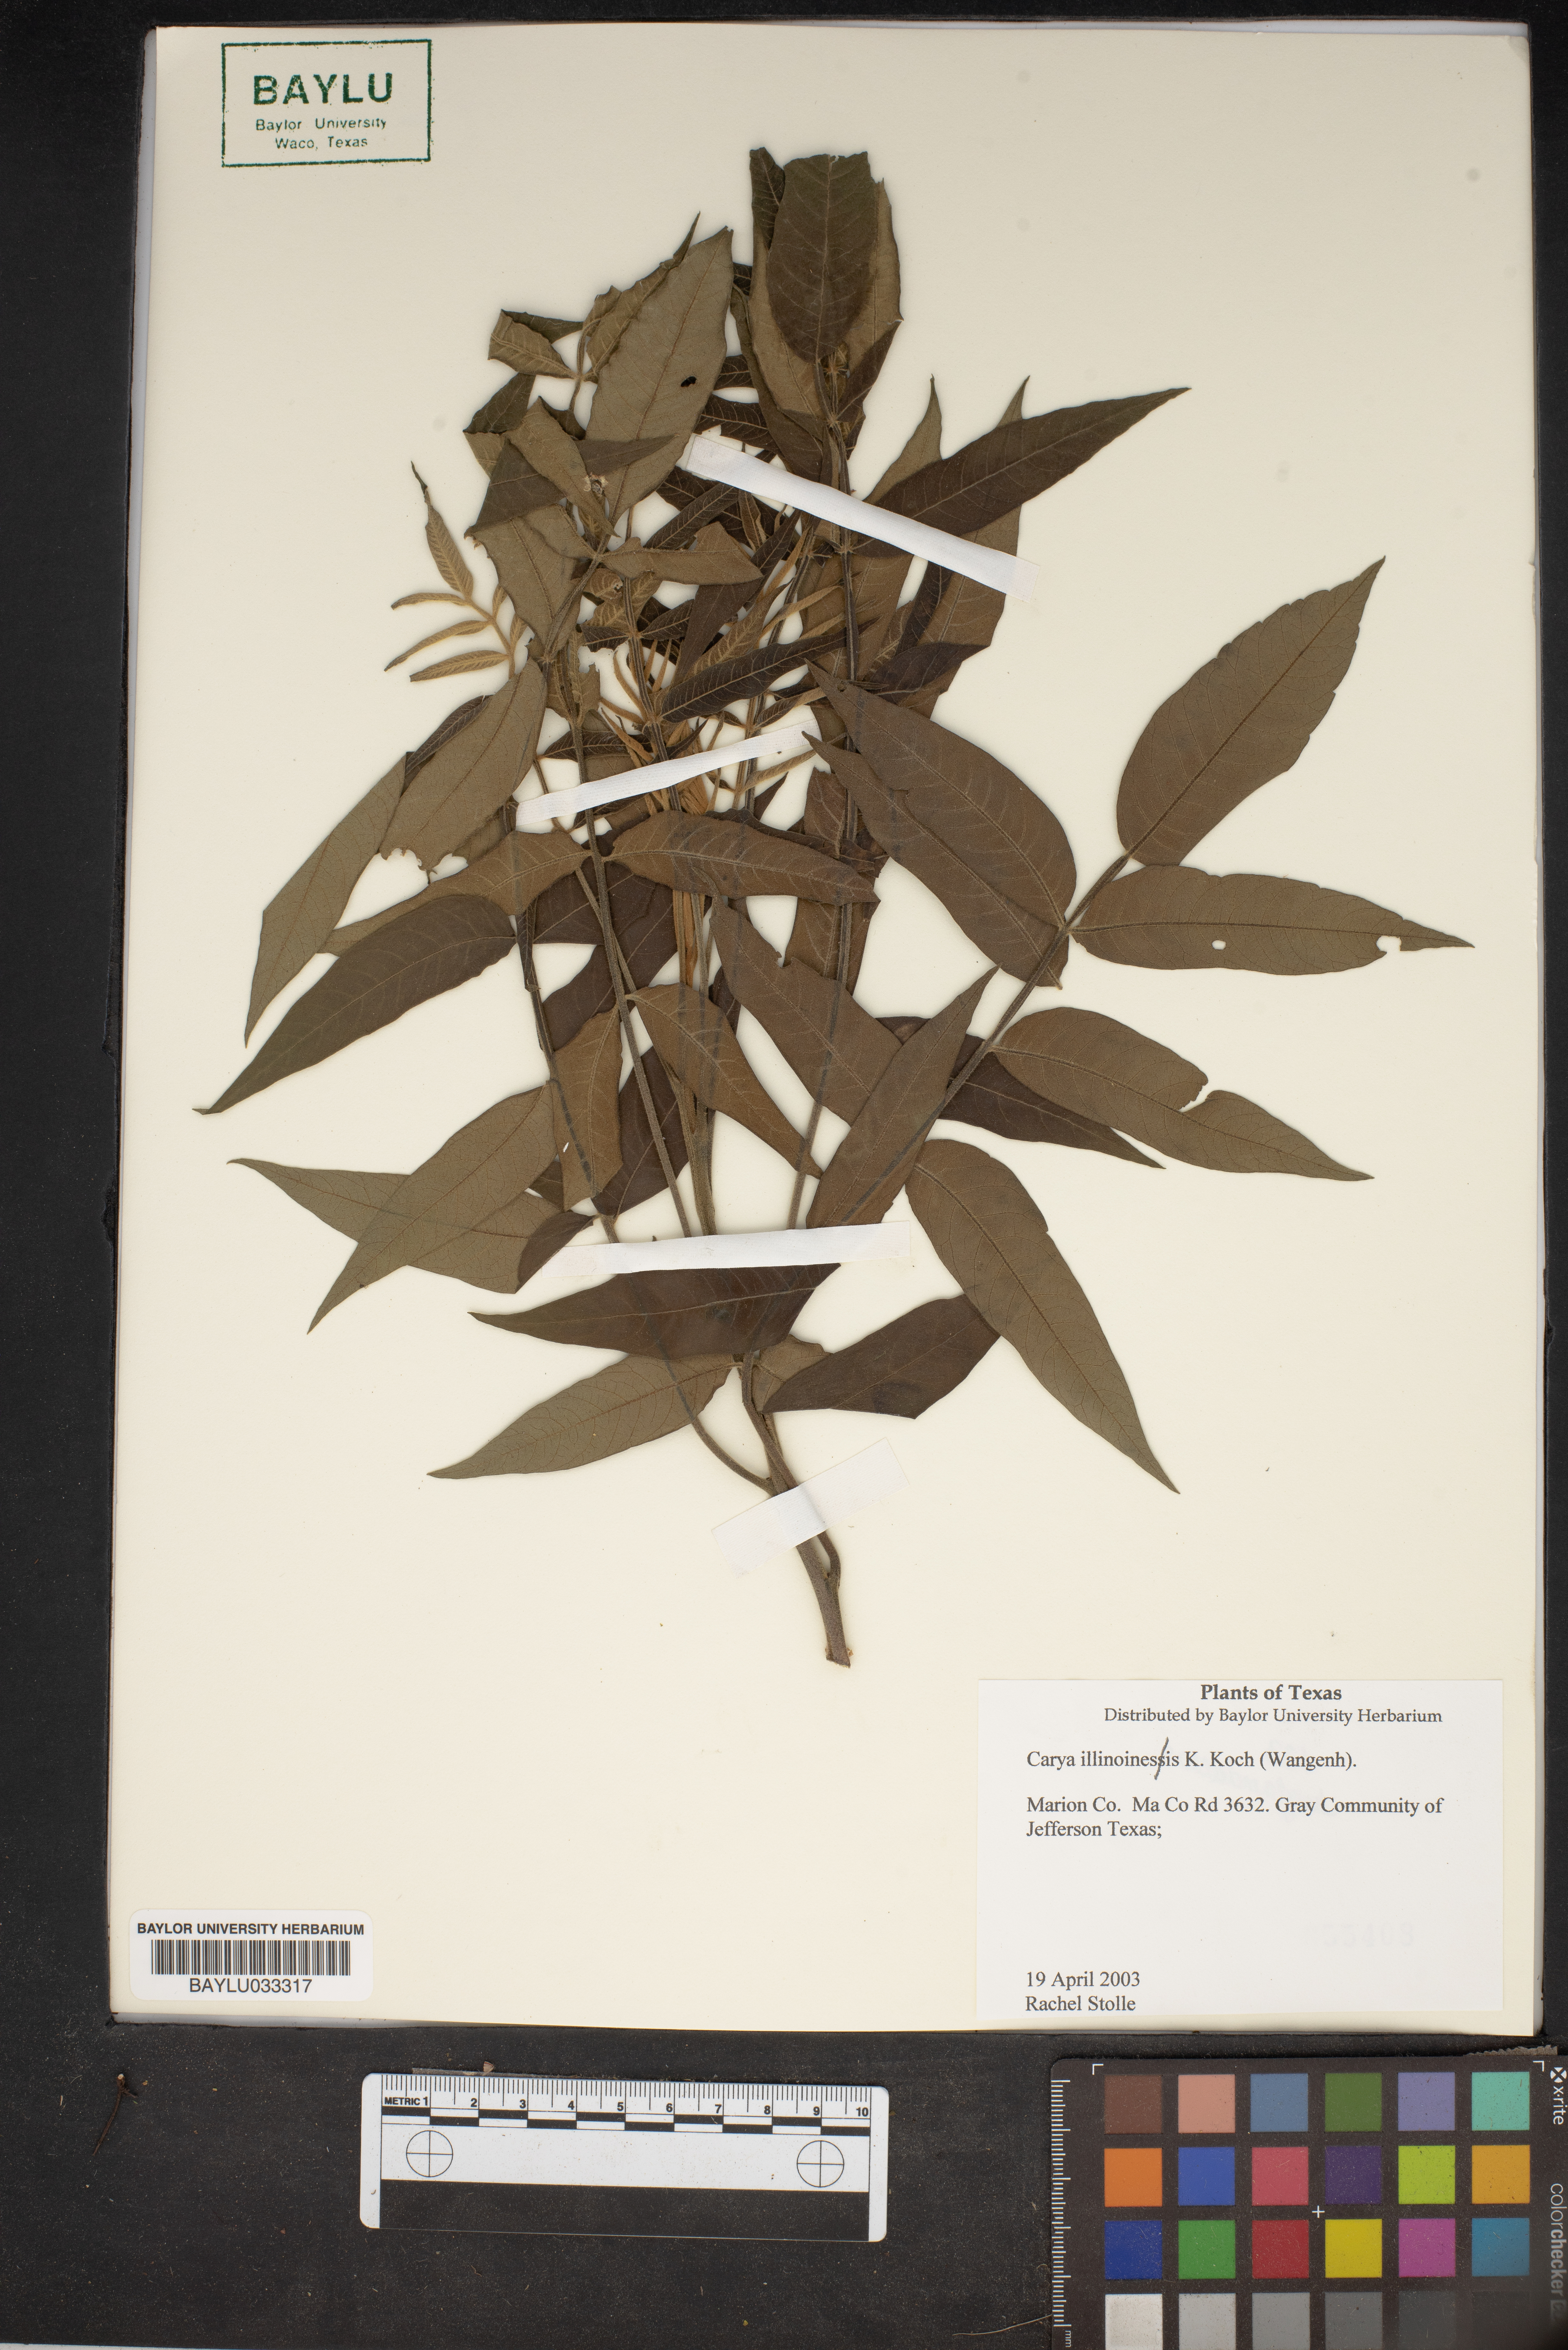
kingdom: Plantae
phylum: Tracheophyta
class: Magnoliopsida
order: Fagales
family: Juglandaceae
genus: Carya
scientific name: Carya
